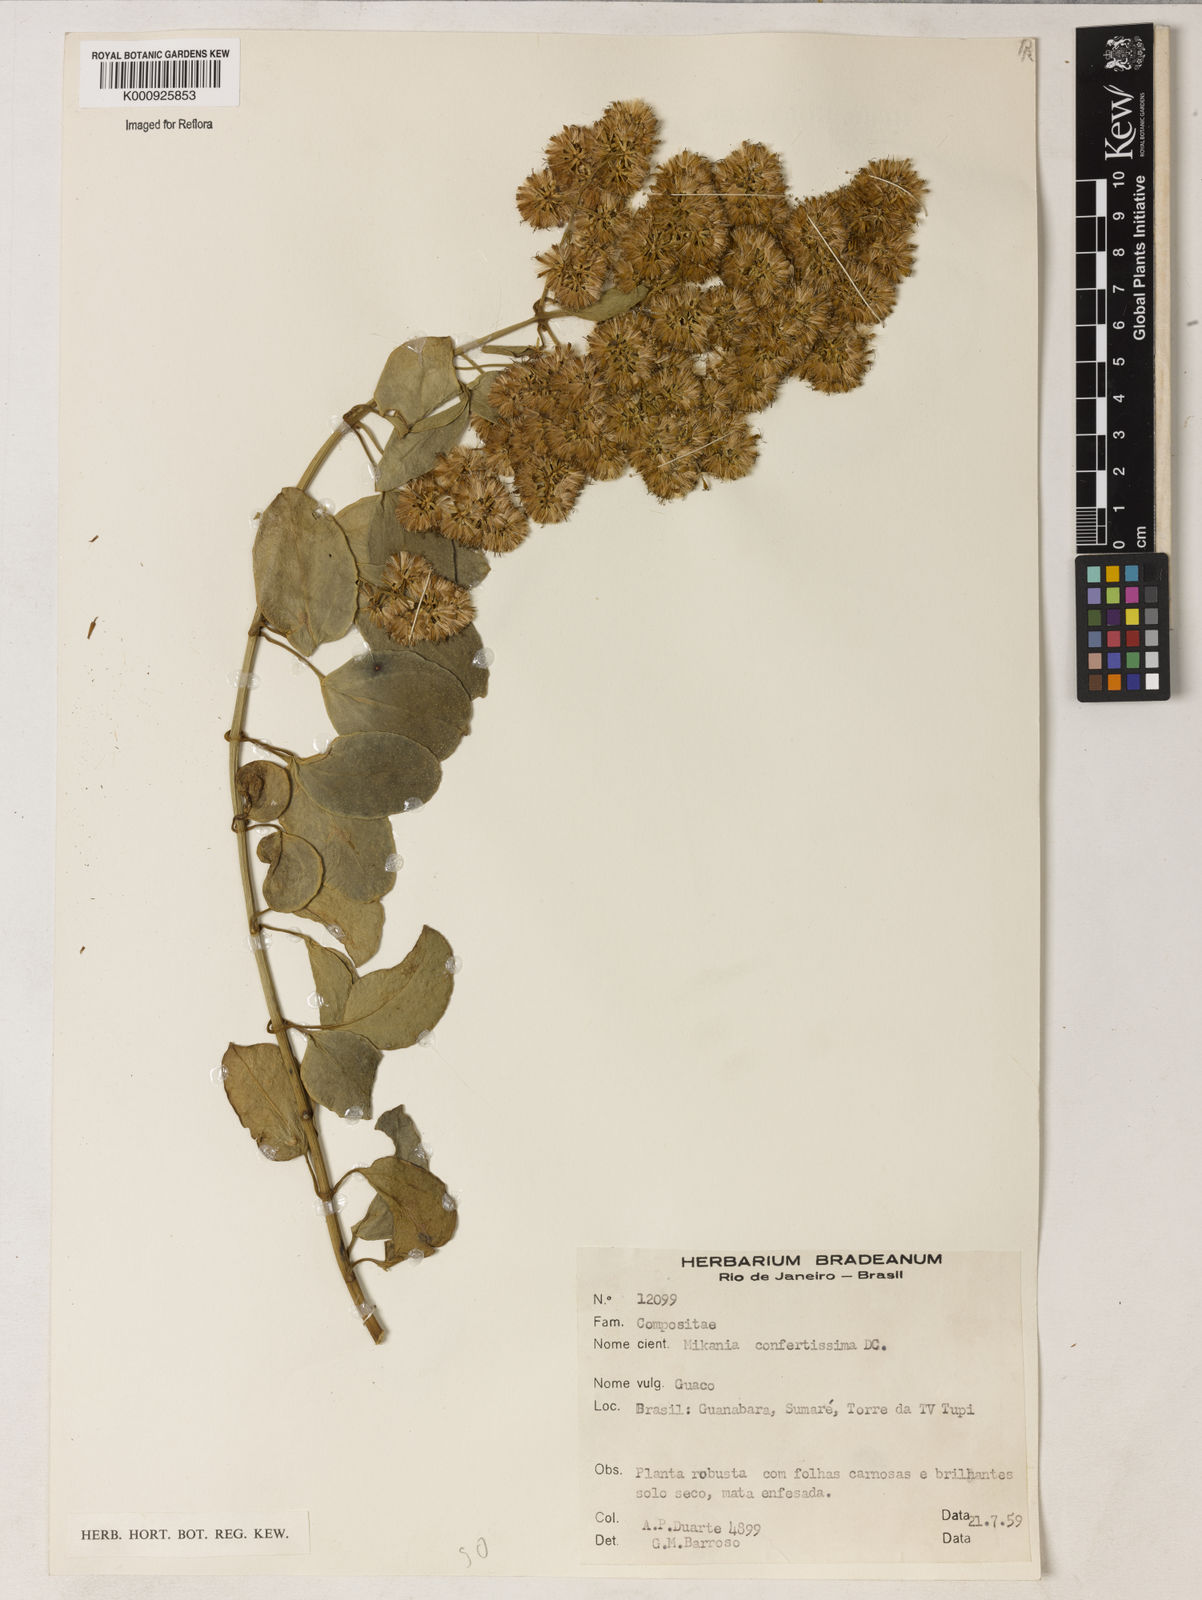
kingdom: Plantae
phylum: Tracheophyta
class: Magnoliopsida
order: Asterales
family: Asteraceae
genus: Mikania
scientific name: Mikania
